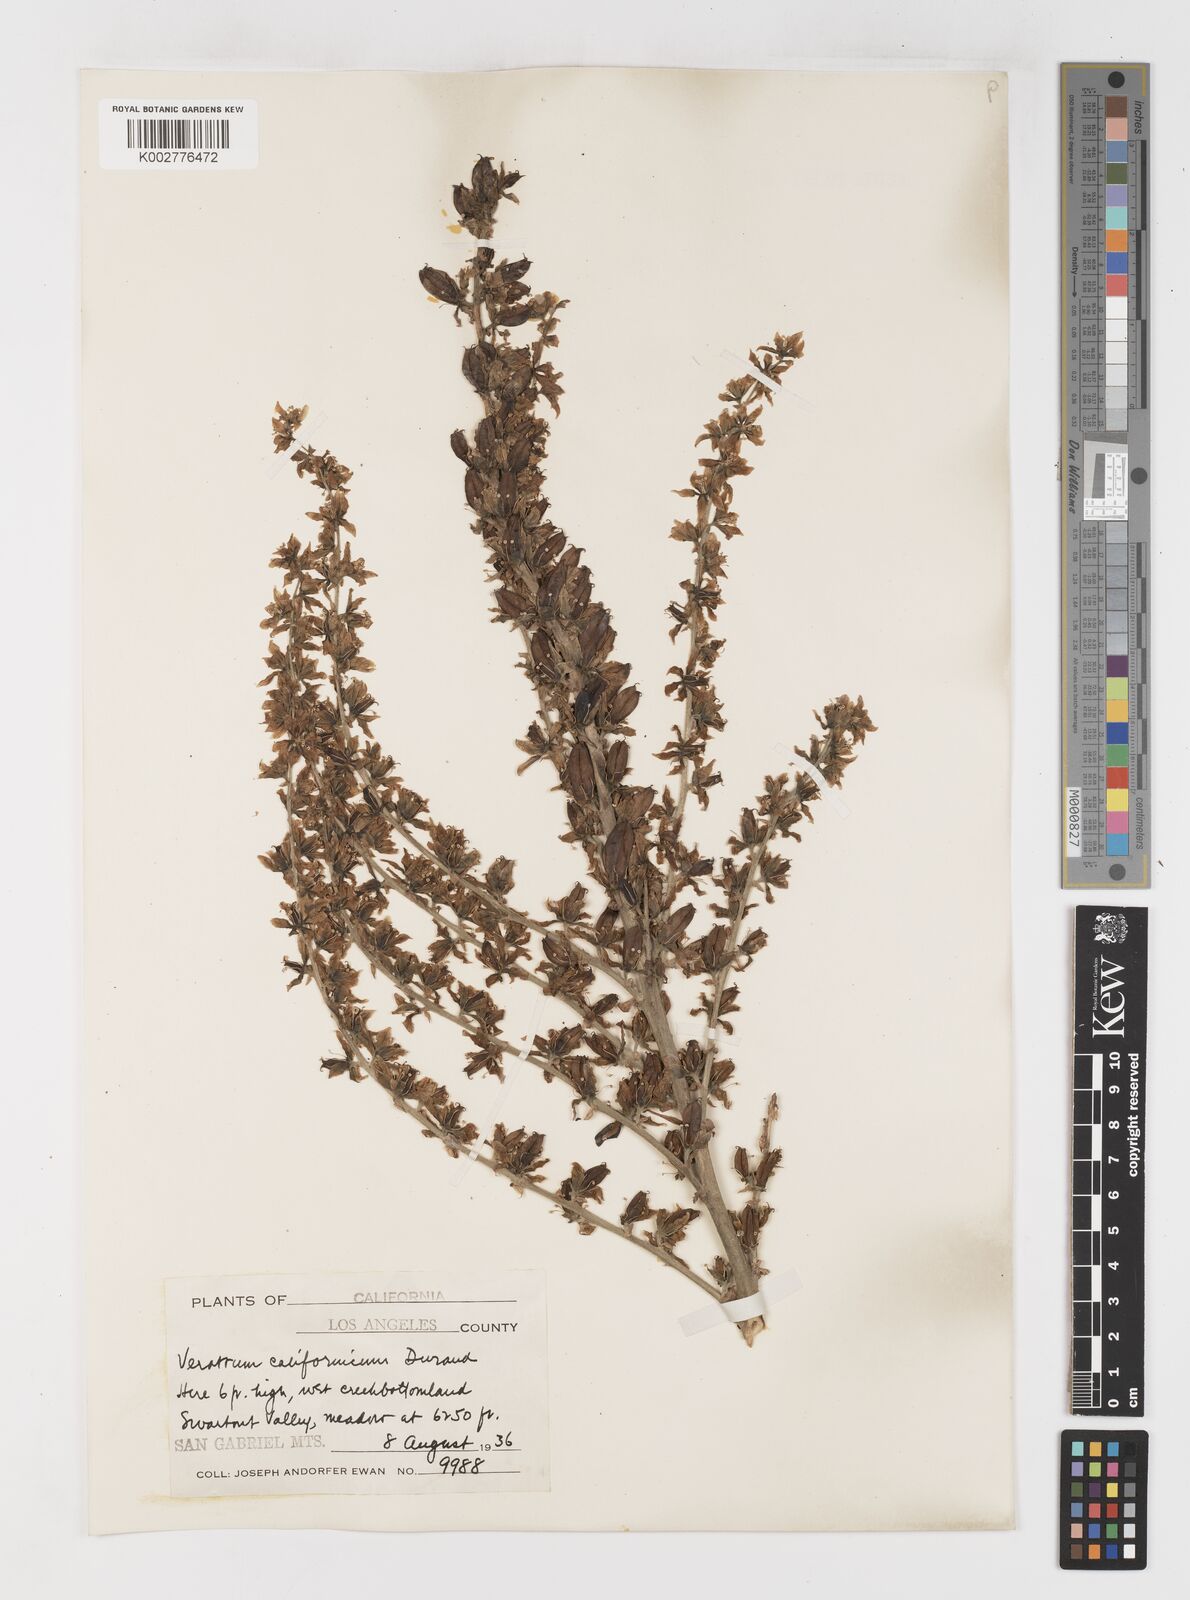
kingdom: Plantae
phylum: Tracheophyta
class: Liliopsida
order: Liliales
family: Melanthiaceae
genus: Veratrum
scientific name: Veratrum californicum
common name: California veratrum
